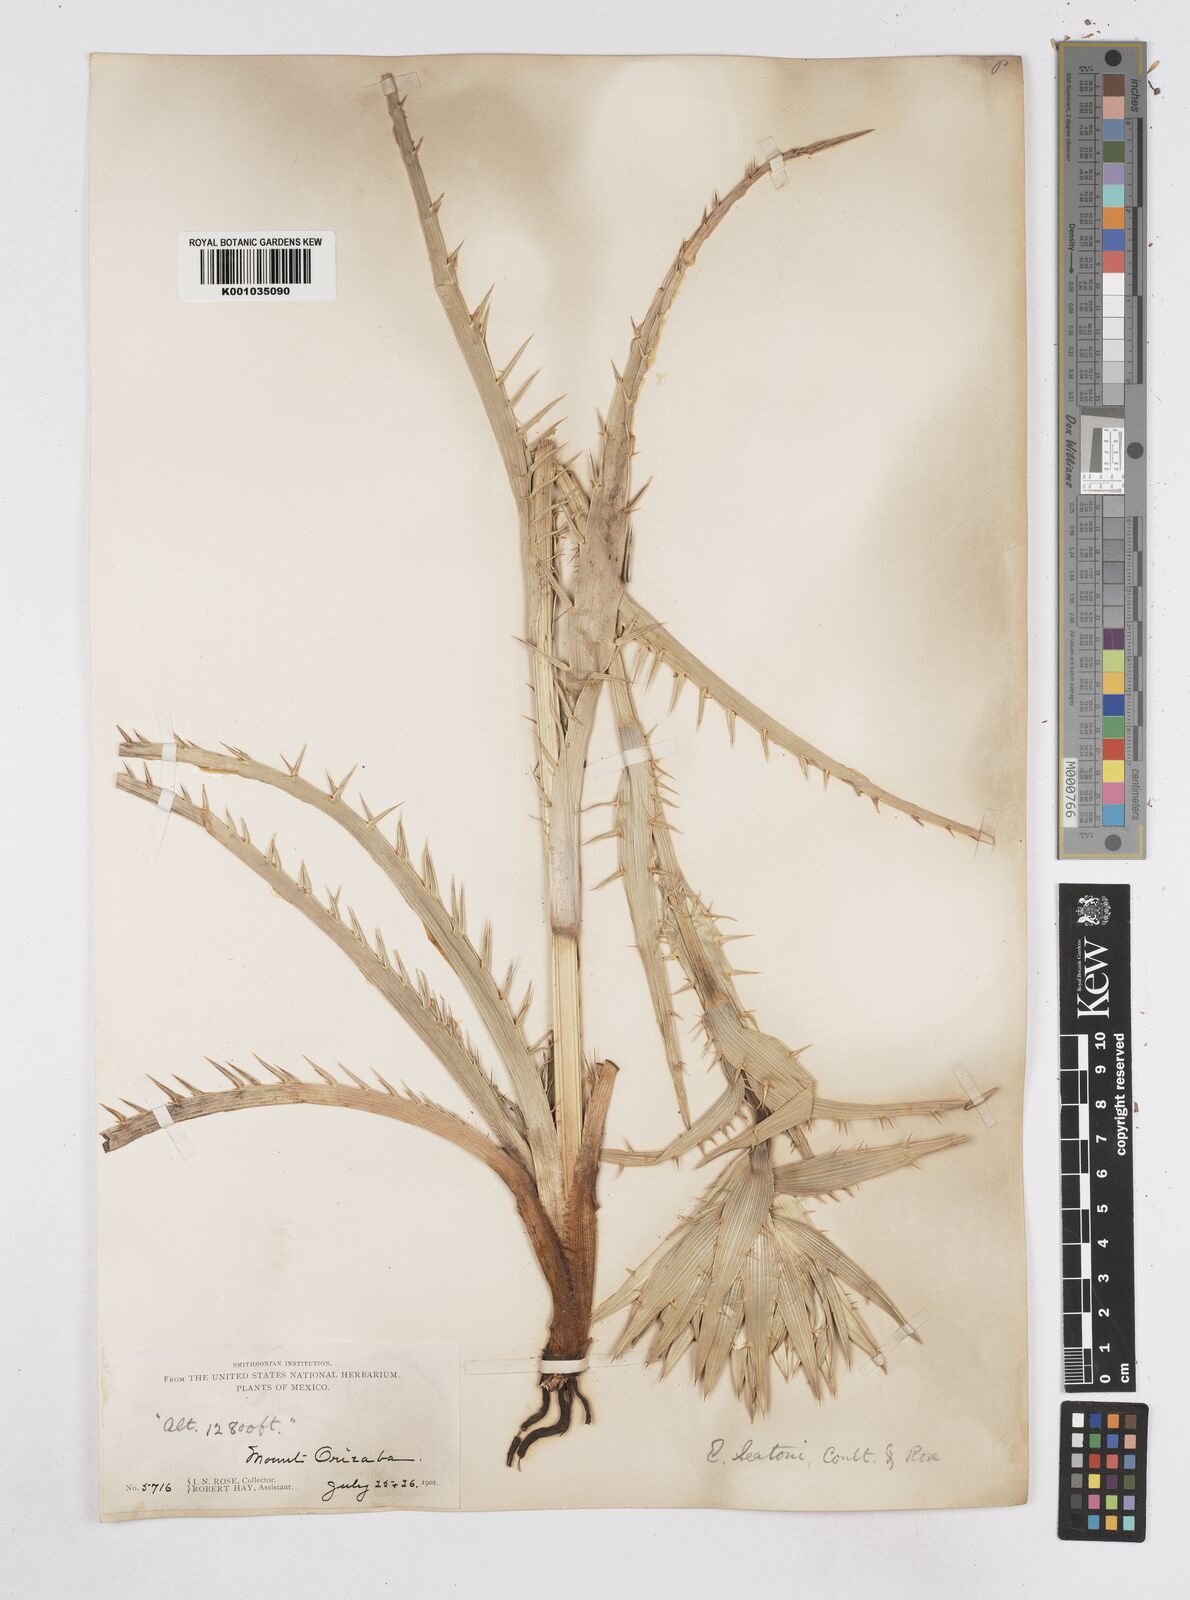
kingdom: Plantae
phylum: Tracheophyta
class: Magnoliopsida
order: Apiales
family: Apiaceae
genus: Eryngium
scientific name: Eryngium proteiflorum
